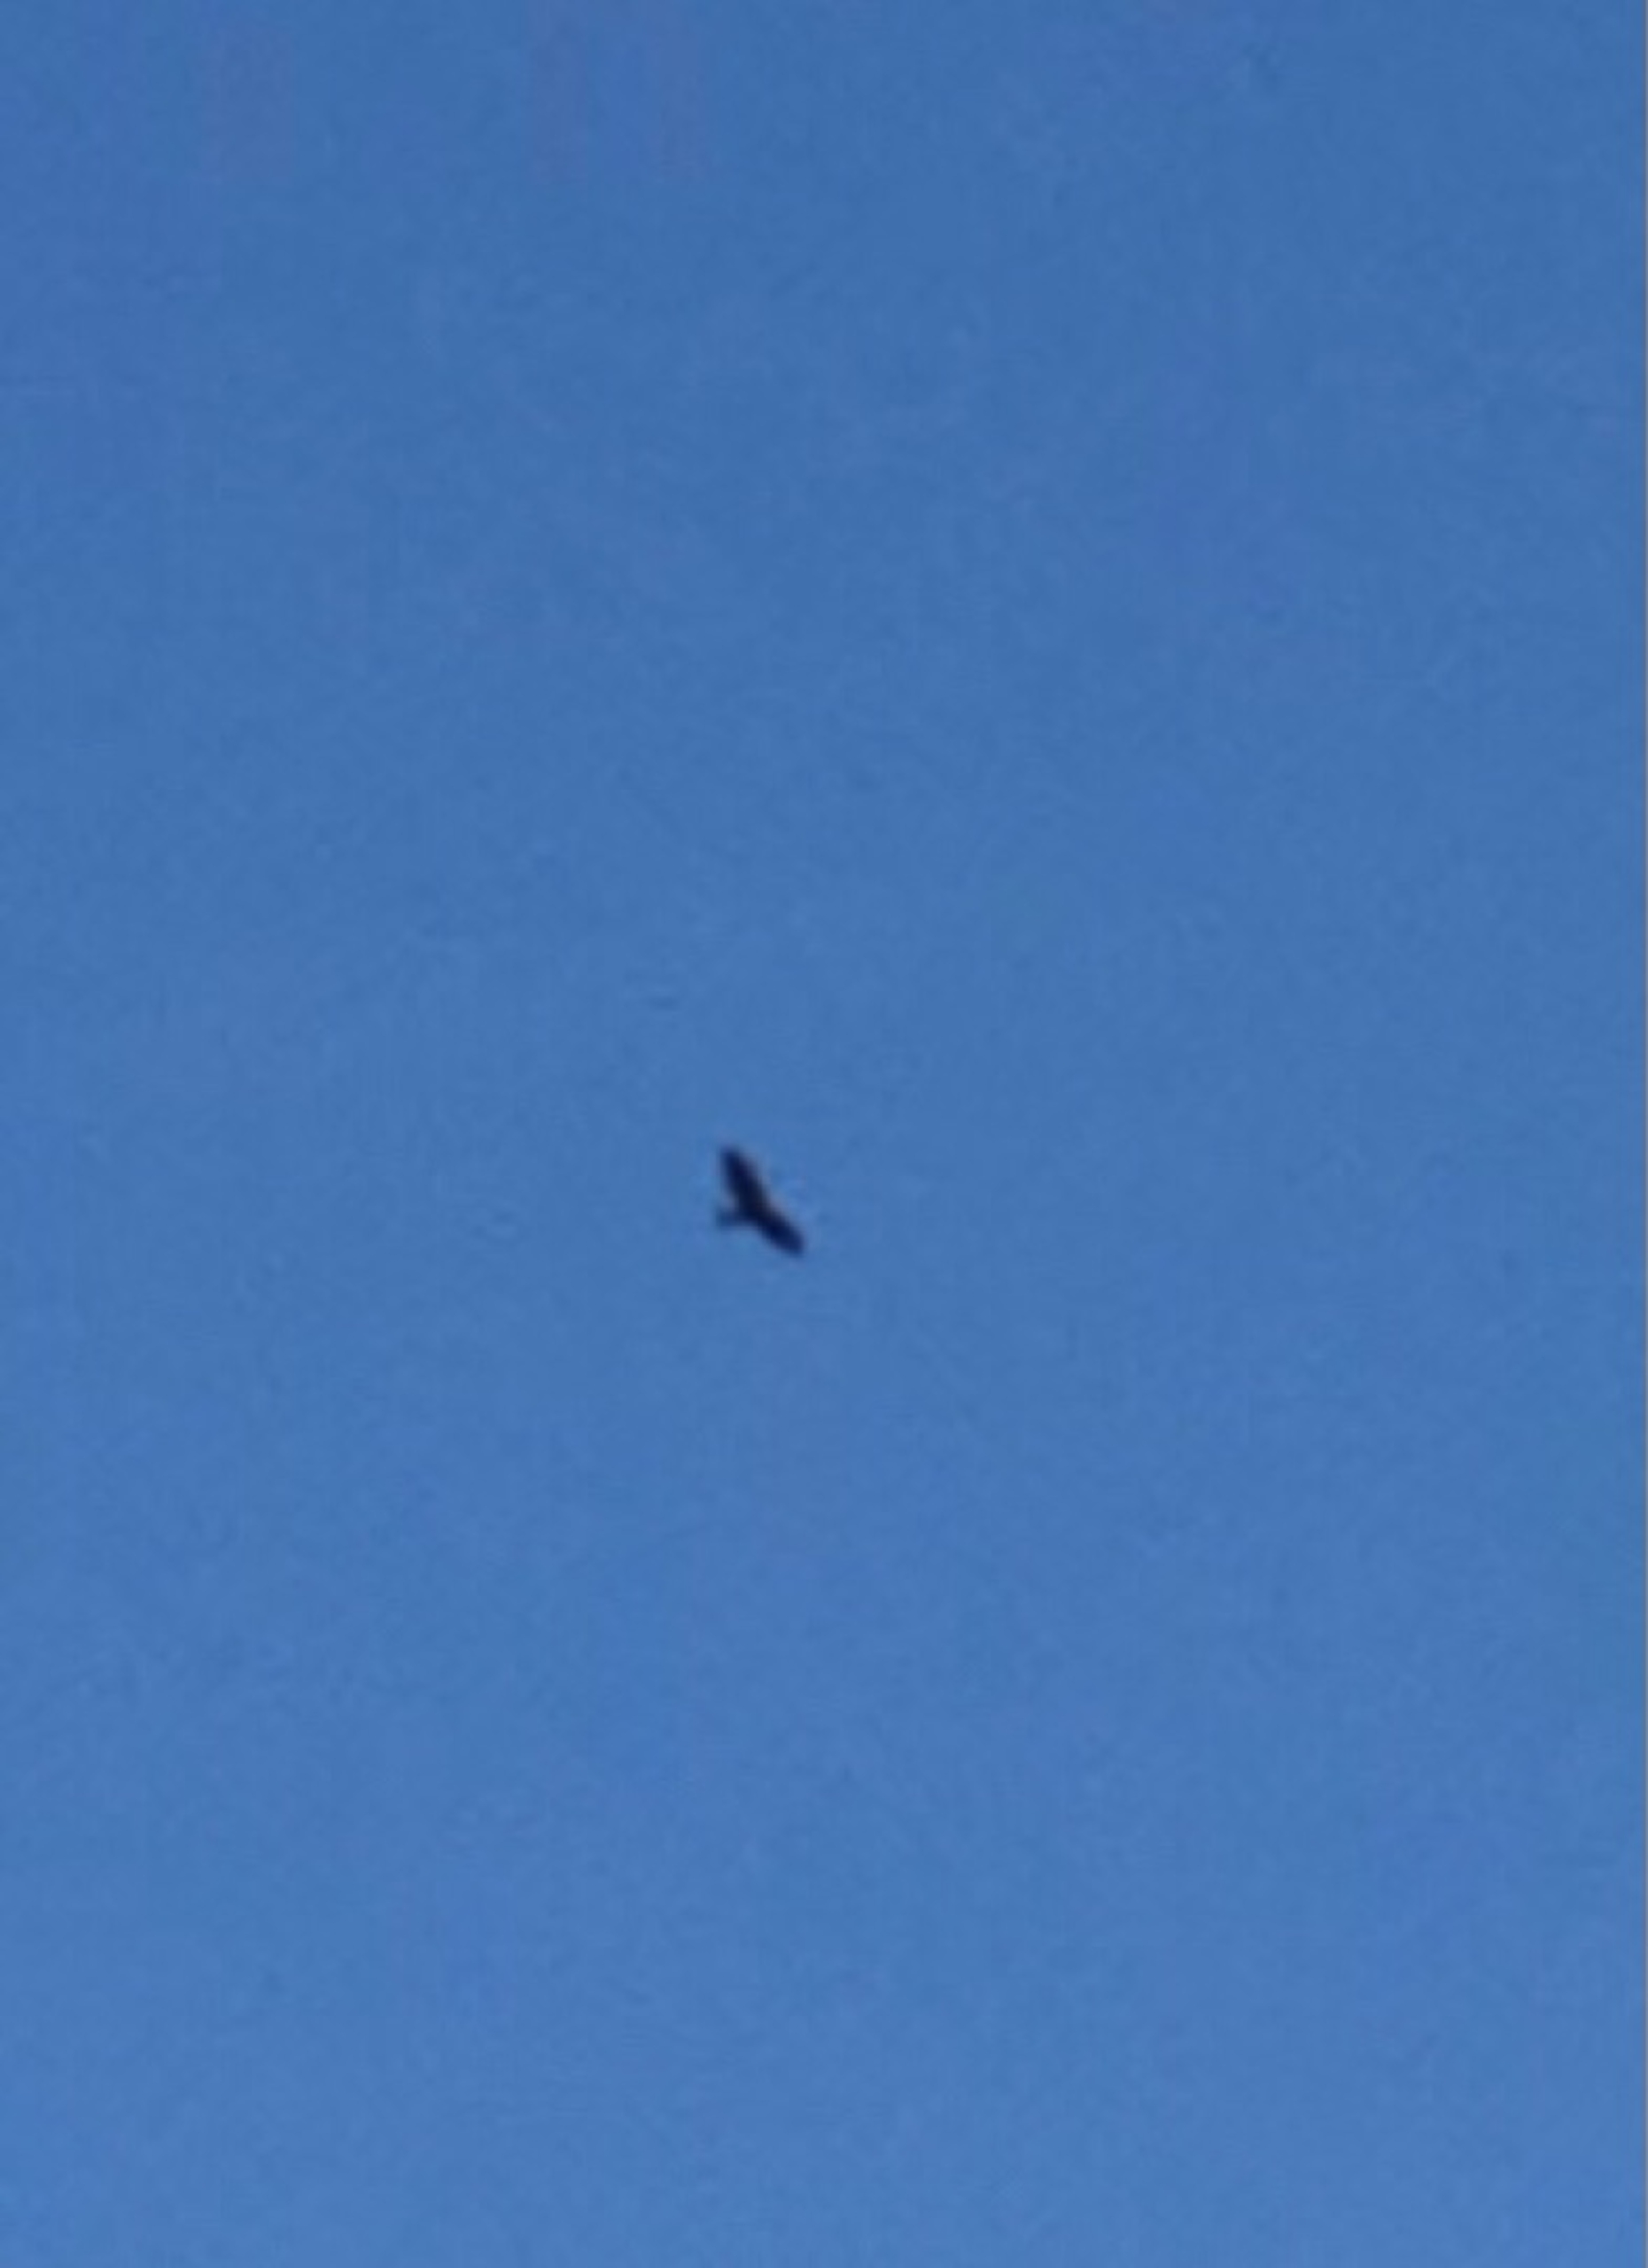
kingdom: Animalia
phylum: Chordata
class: Aves
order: Accipitriformes
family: Accipitridae
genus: Circus
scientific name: Circus aeruginosus
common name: Rørhøg
